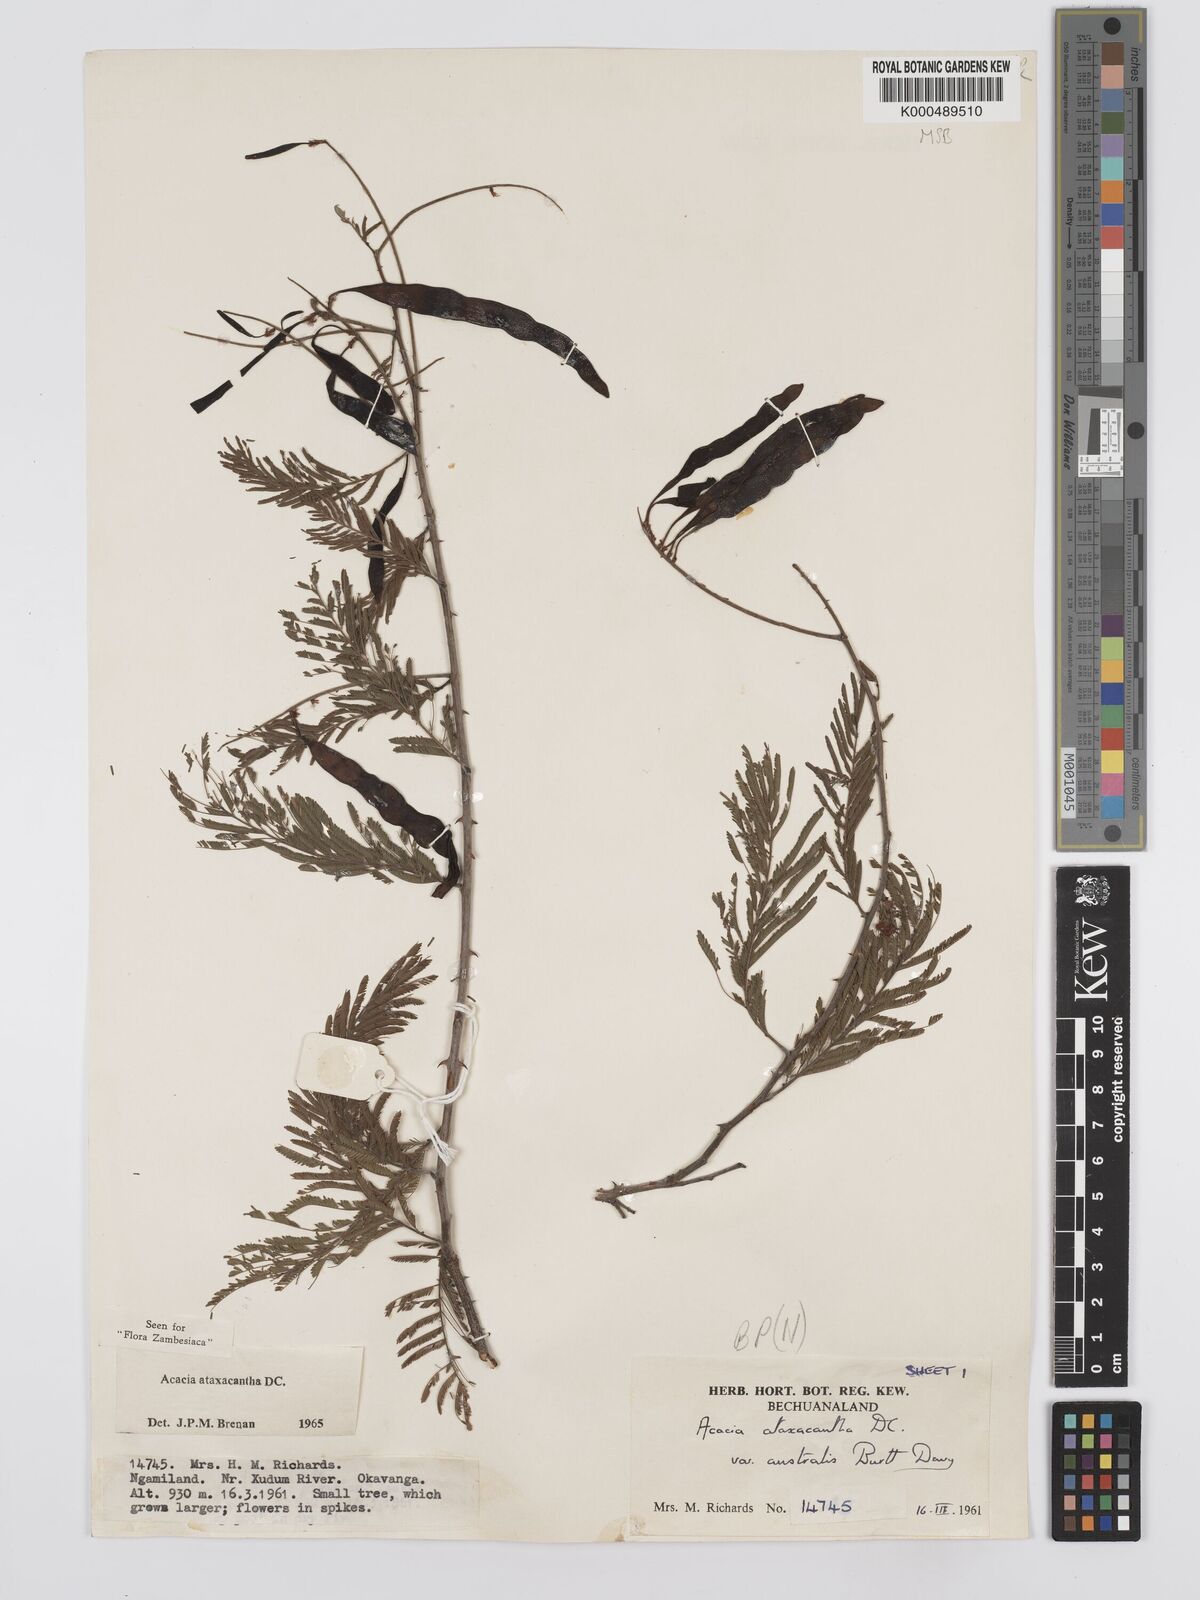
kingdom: Plantae
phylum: Tracheophyta
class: Magnoliopsida
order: Fabales
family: Fabaceae
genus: Senegalia
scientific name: Senegalia ataxacantha
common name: Flame acacia
